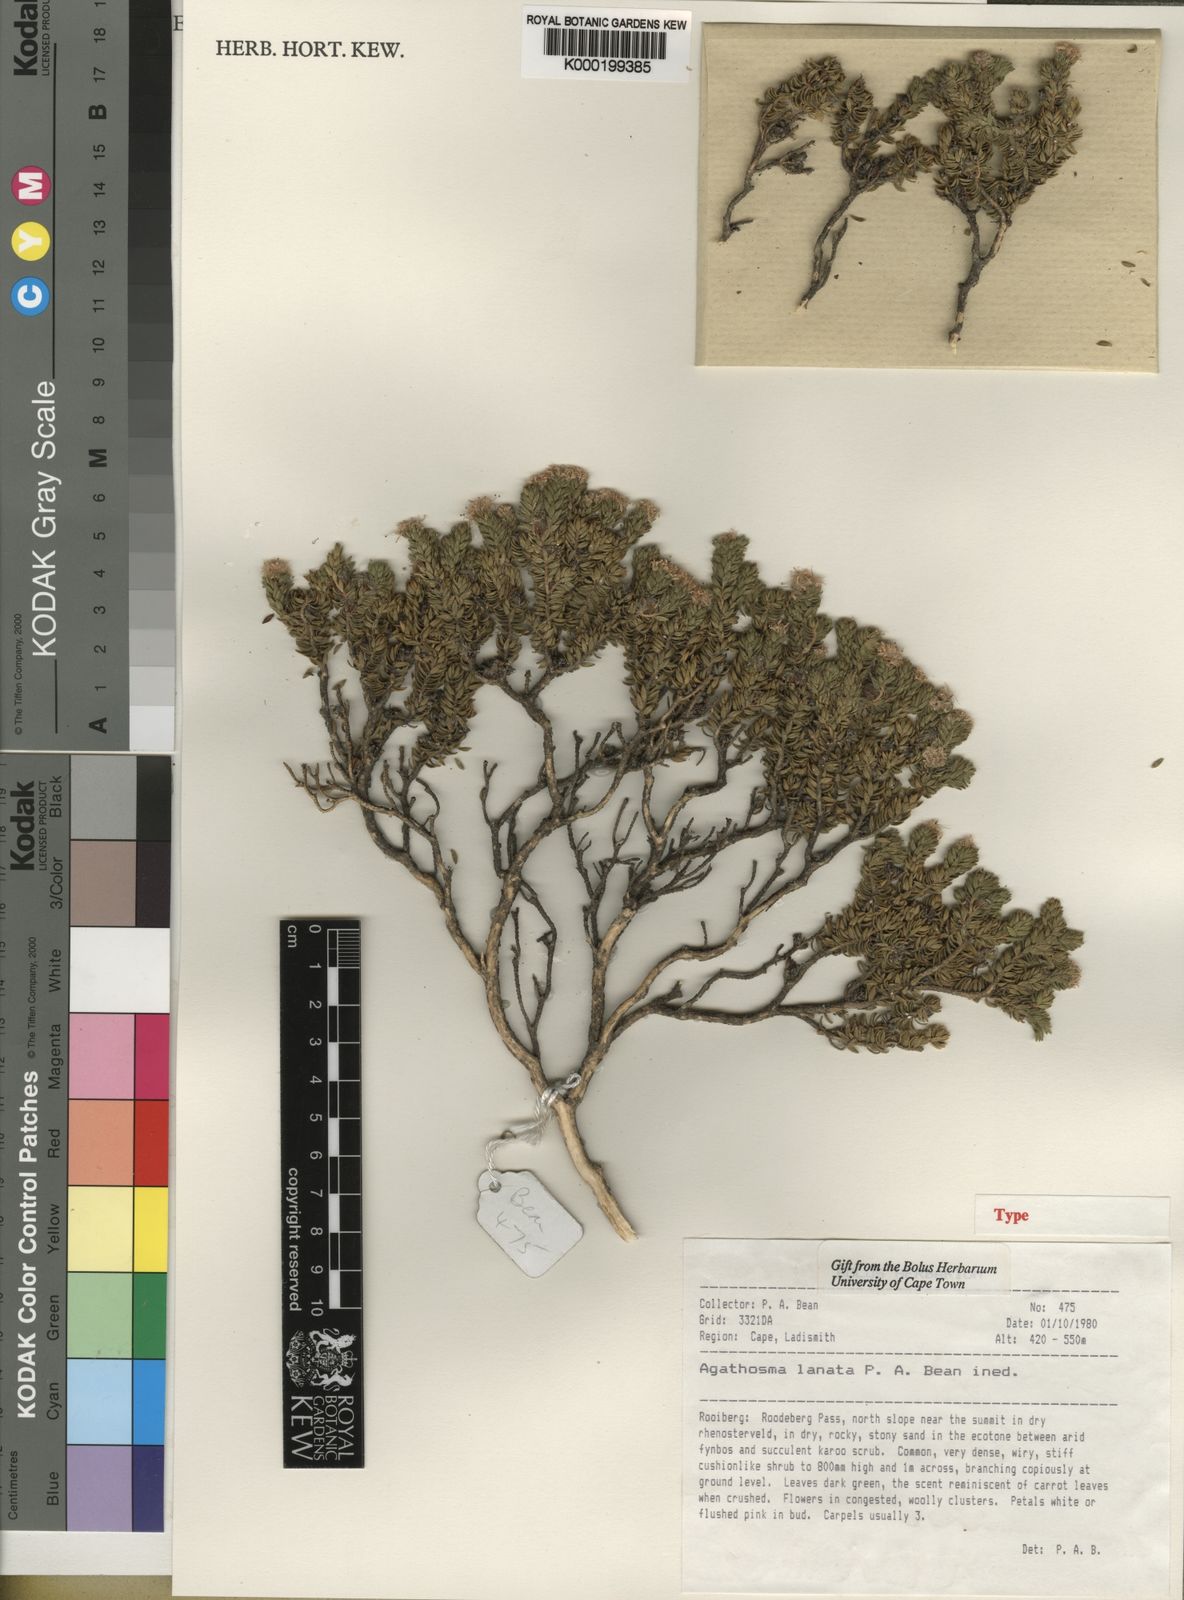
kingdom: Plantae
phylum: Tracheophyta
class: Magnoliopsida
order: Sapindales
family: Rutaceae
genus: Agathosma
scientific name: Agathosma
